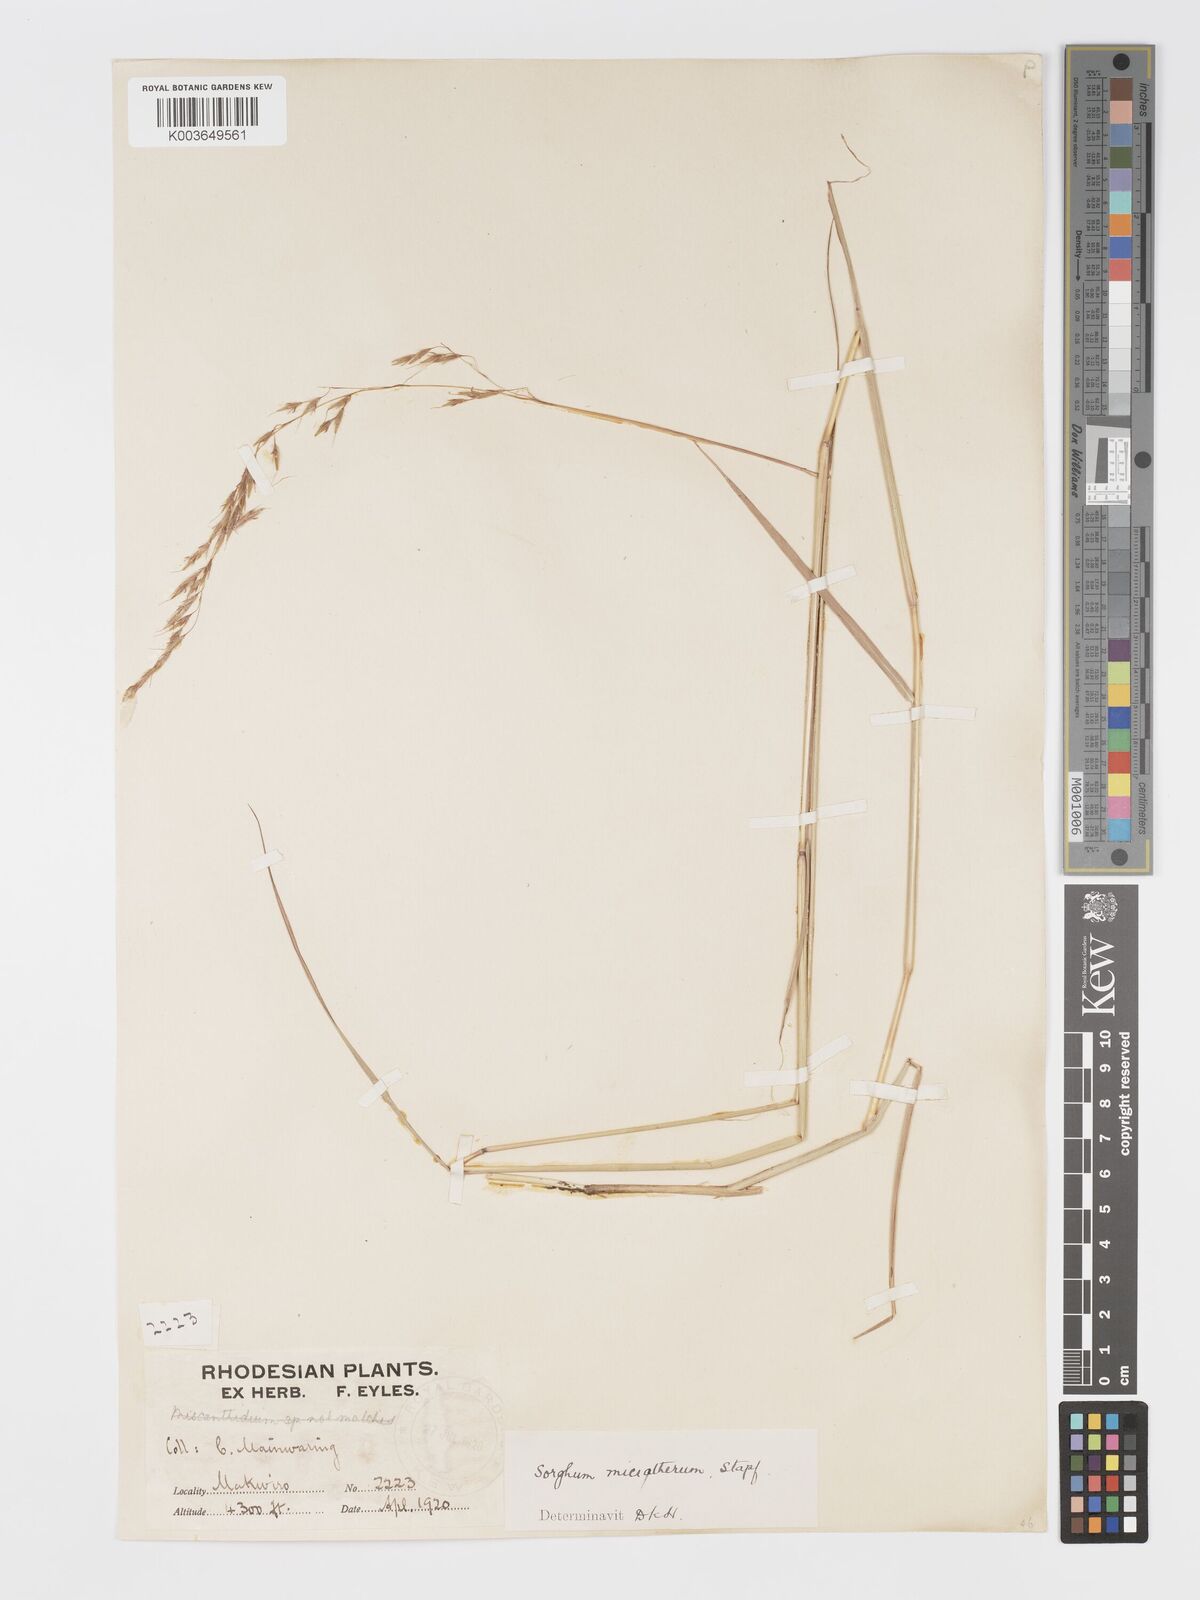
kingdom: Plantae
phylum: Tracheophyta
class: Liliopsida
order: Poales
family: Poaceae
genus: Sorghastrum
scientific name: Sorghastrum nudipes
